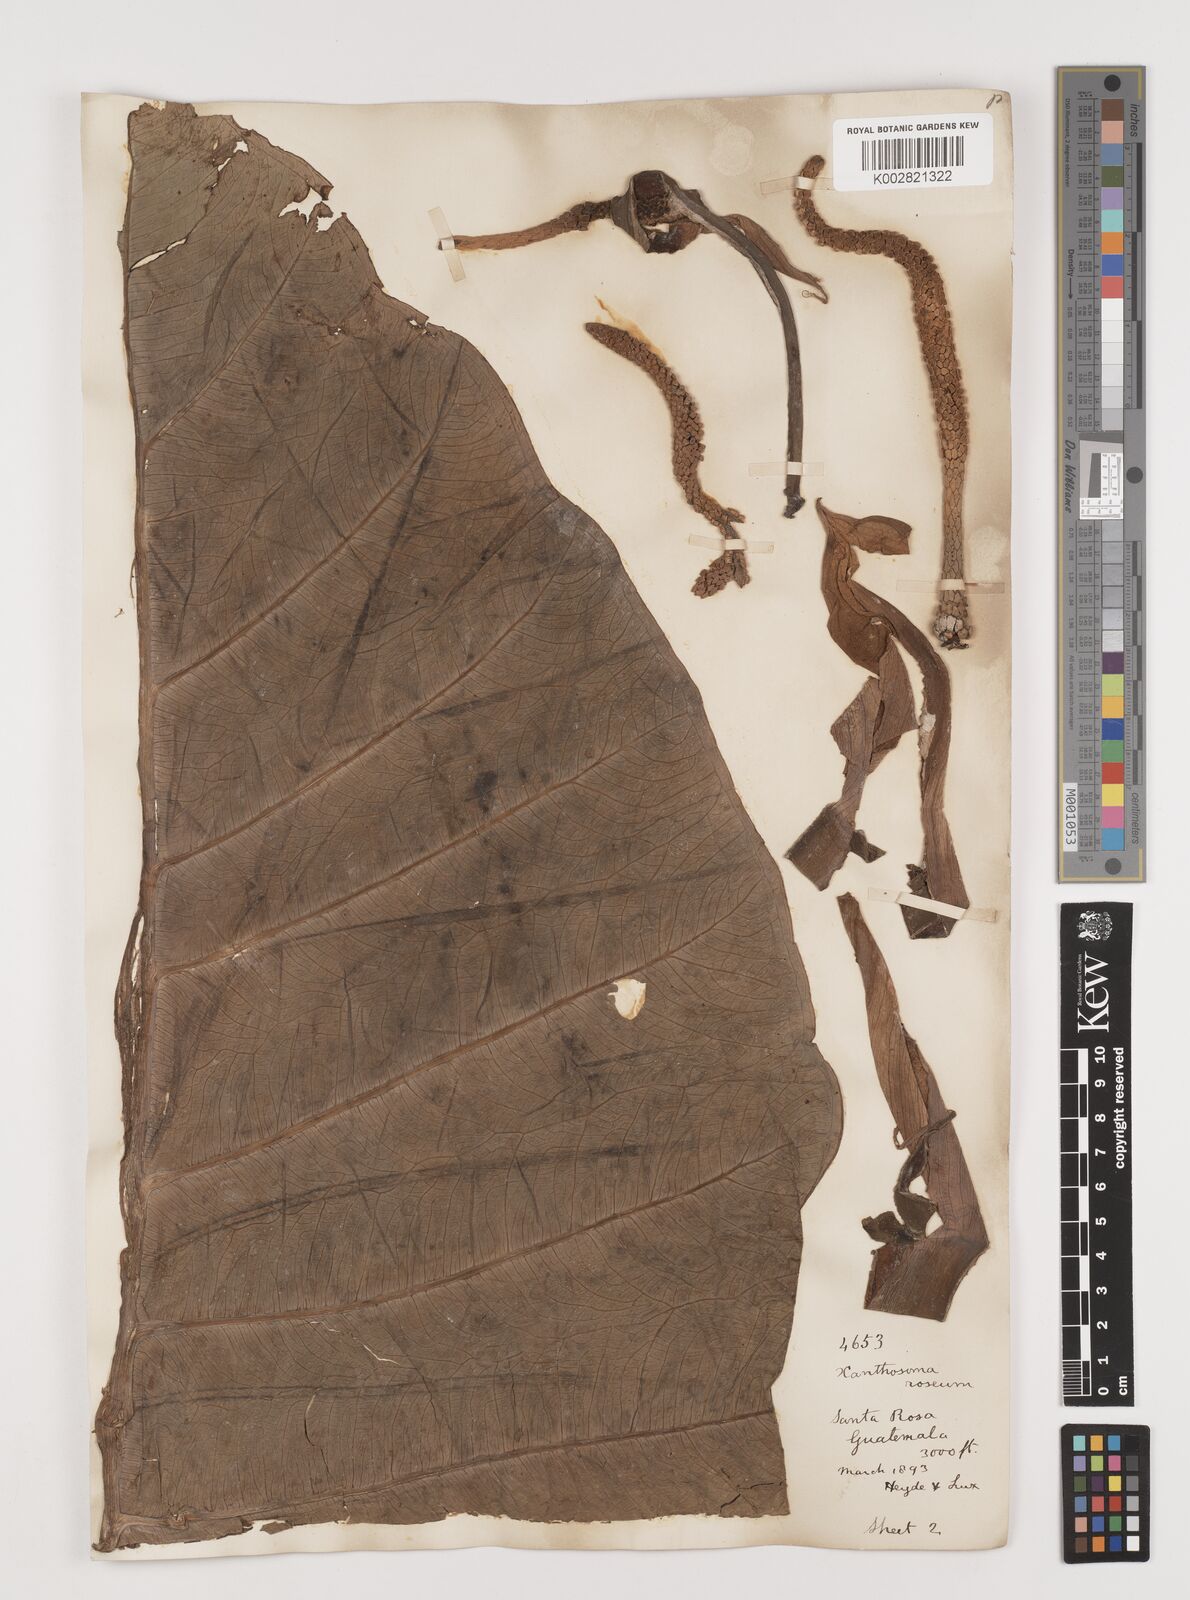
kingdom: Plantae
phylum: Tracheophyta
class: Liliopsida
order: Alismatales
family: Araceae
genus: Xanthosoma
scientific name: Xanthosoma sagittifolium
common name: Arrowleaf elephant's ear
